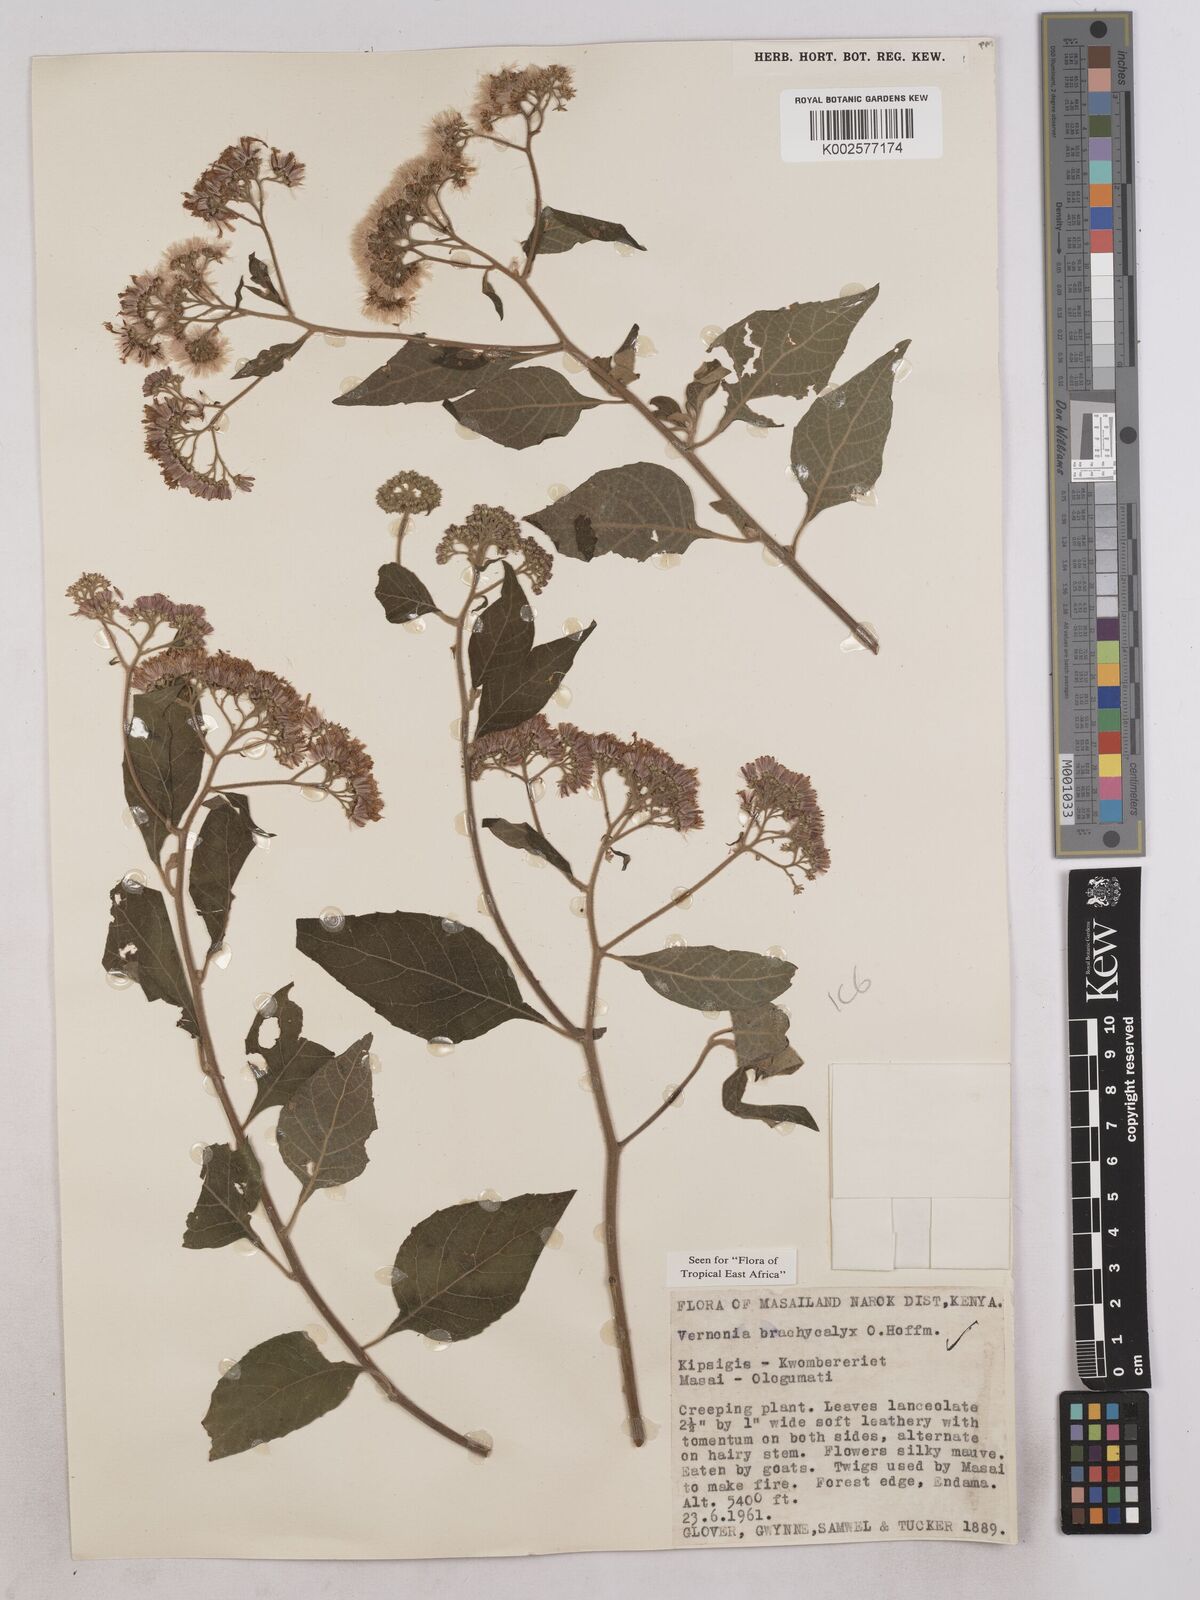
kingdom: Plantae
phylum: Tracheophyta
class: Magnoliopsida
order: Asterales
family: Asteraceae
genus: Hoffmannanthus
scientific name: Hoffmannanthus abbotianus
